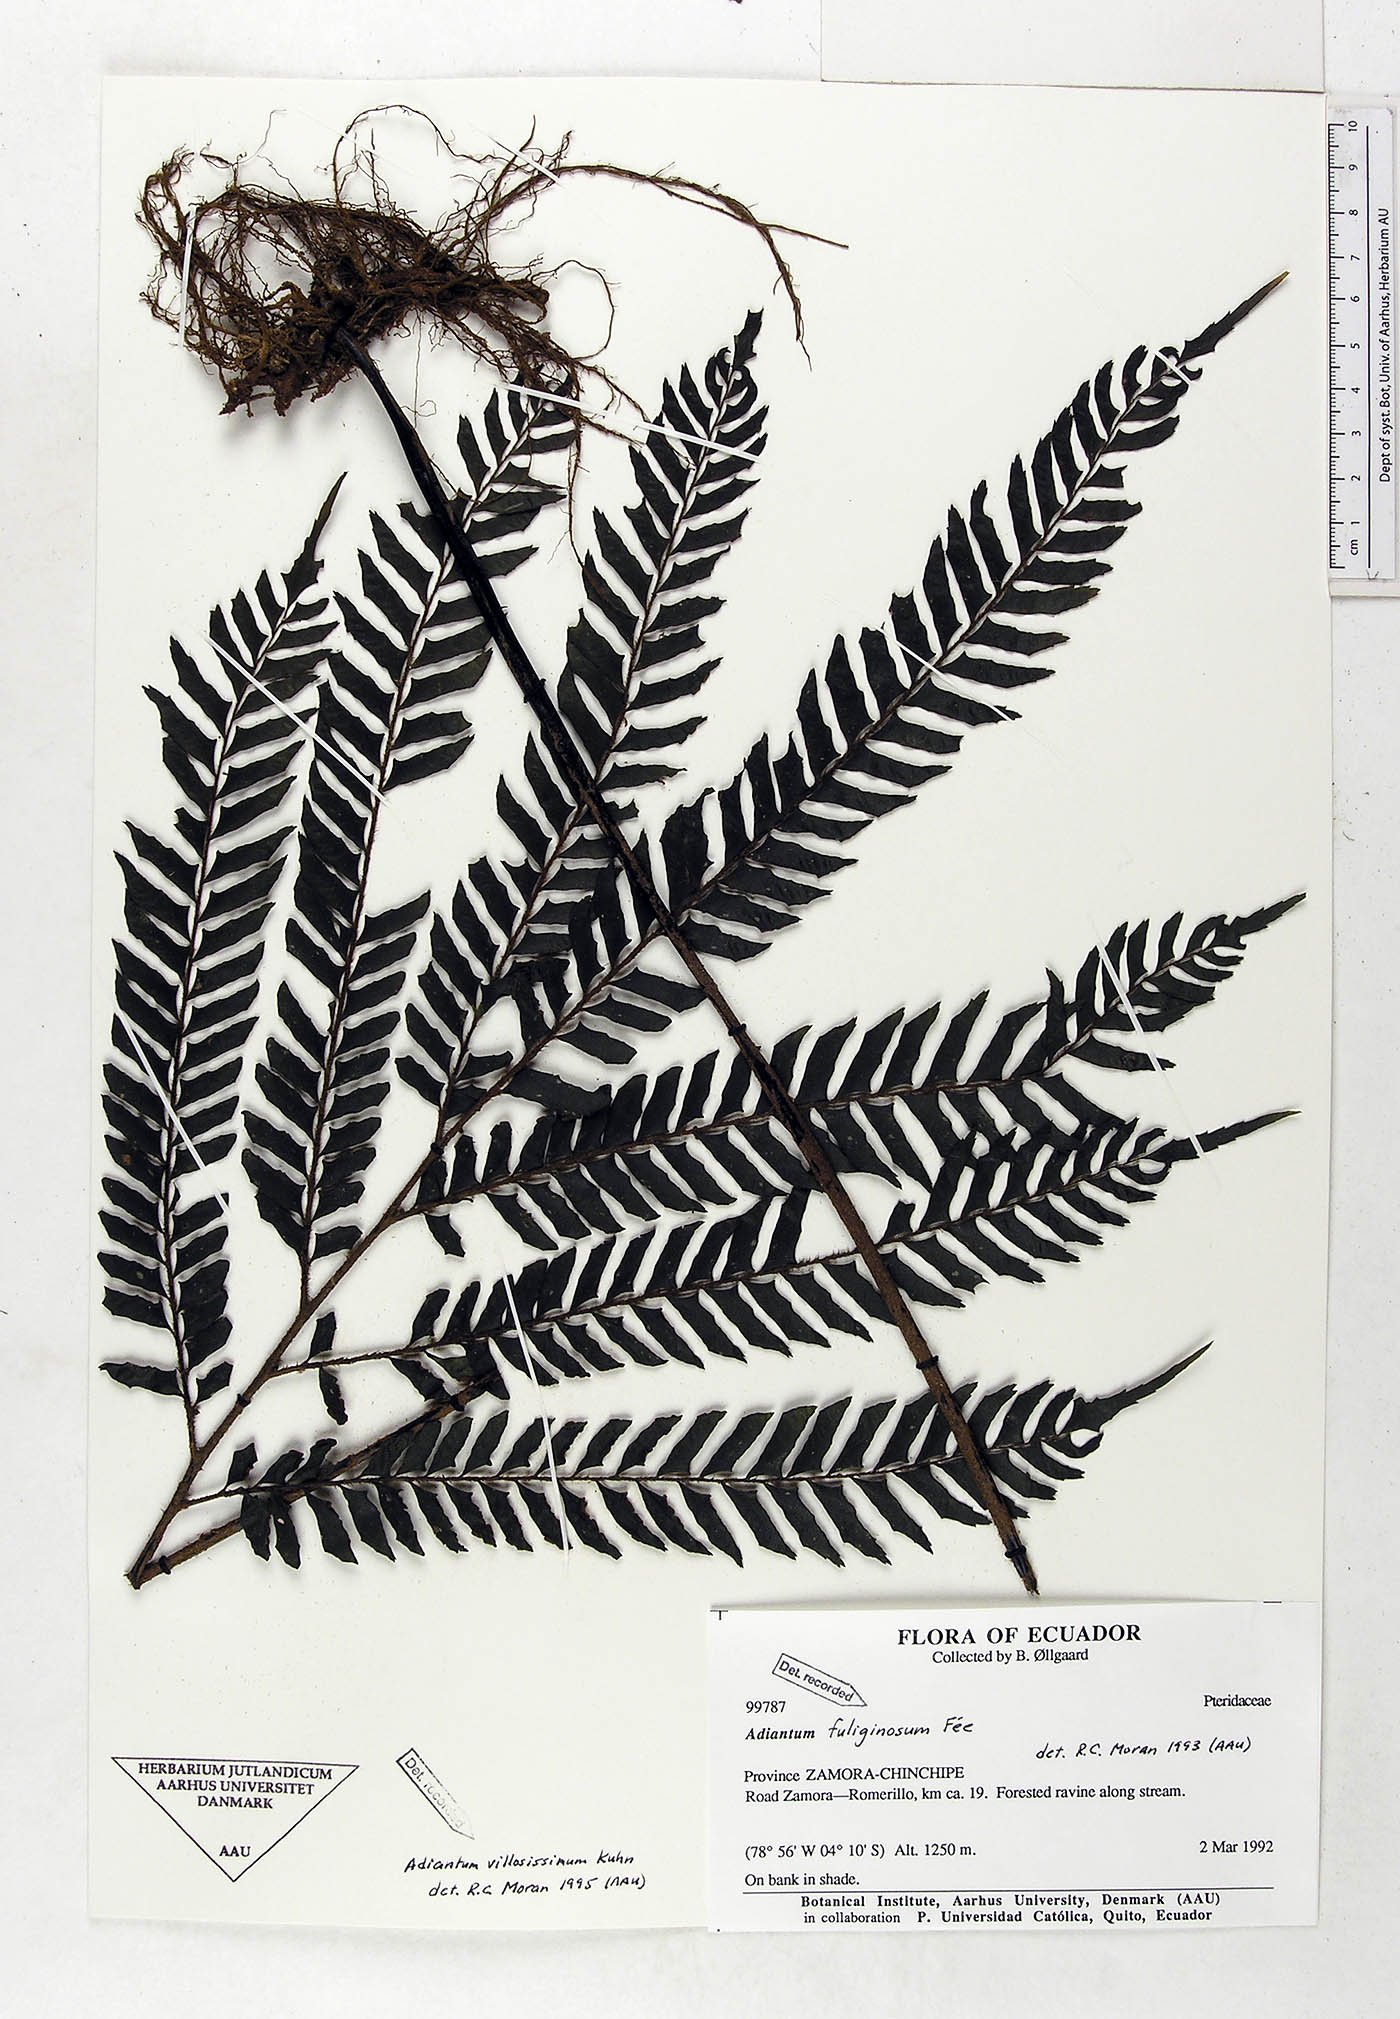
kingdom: Plantae
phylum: Tracheophyta
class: Polypodiopsida
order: Polypodiales
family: Pteridaceae
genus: Adiantum
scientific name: Adiantum villosissimum
